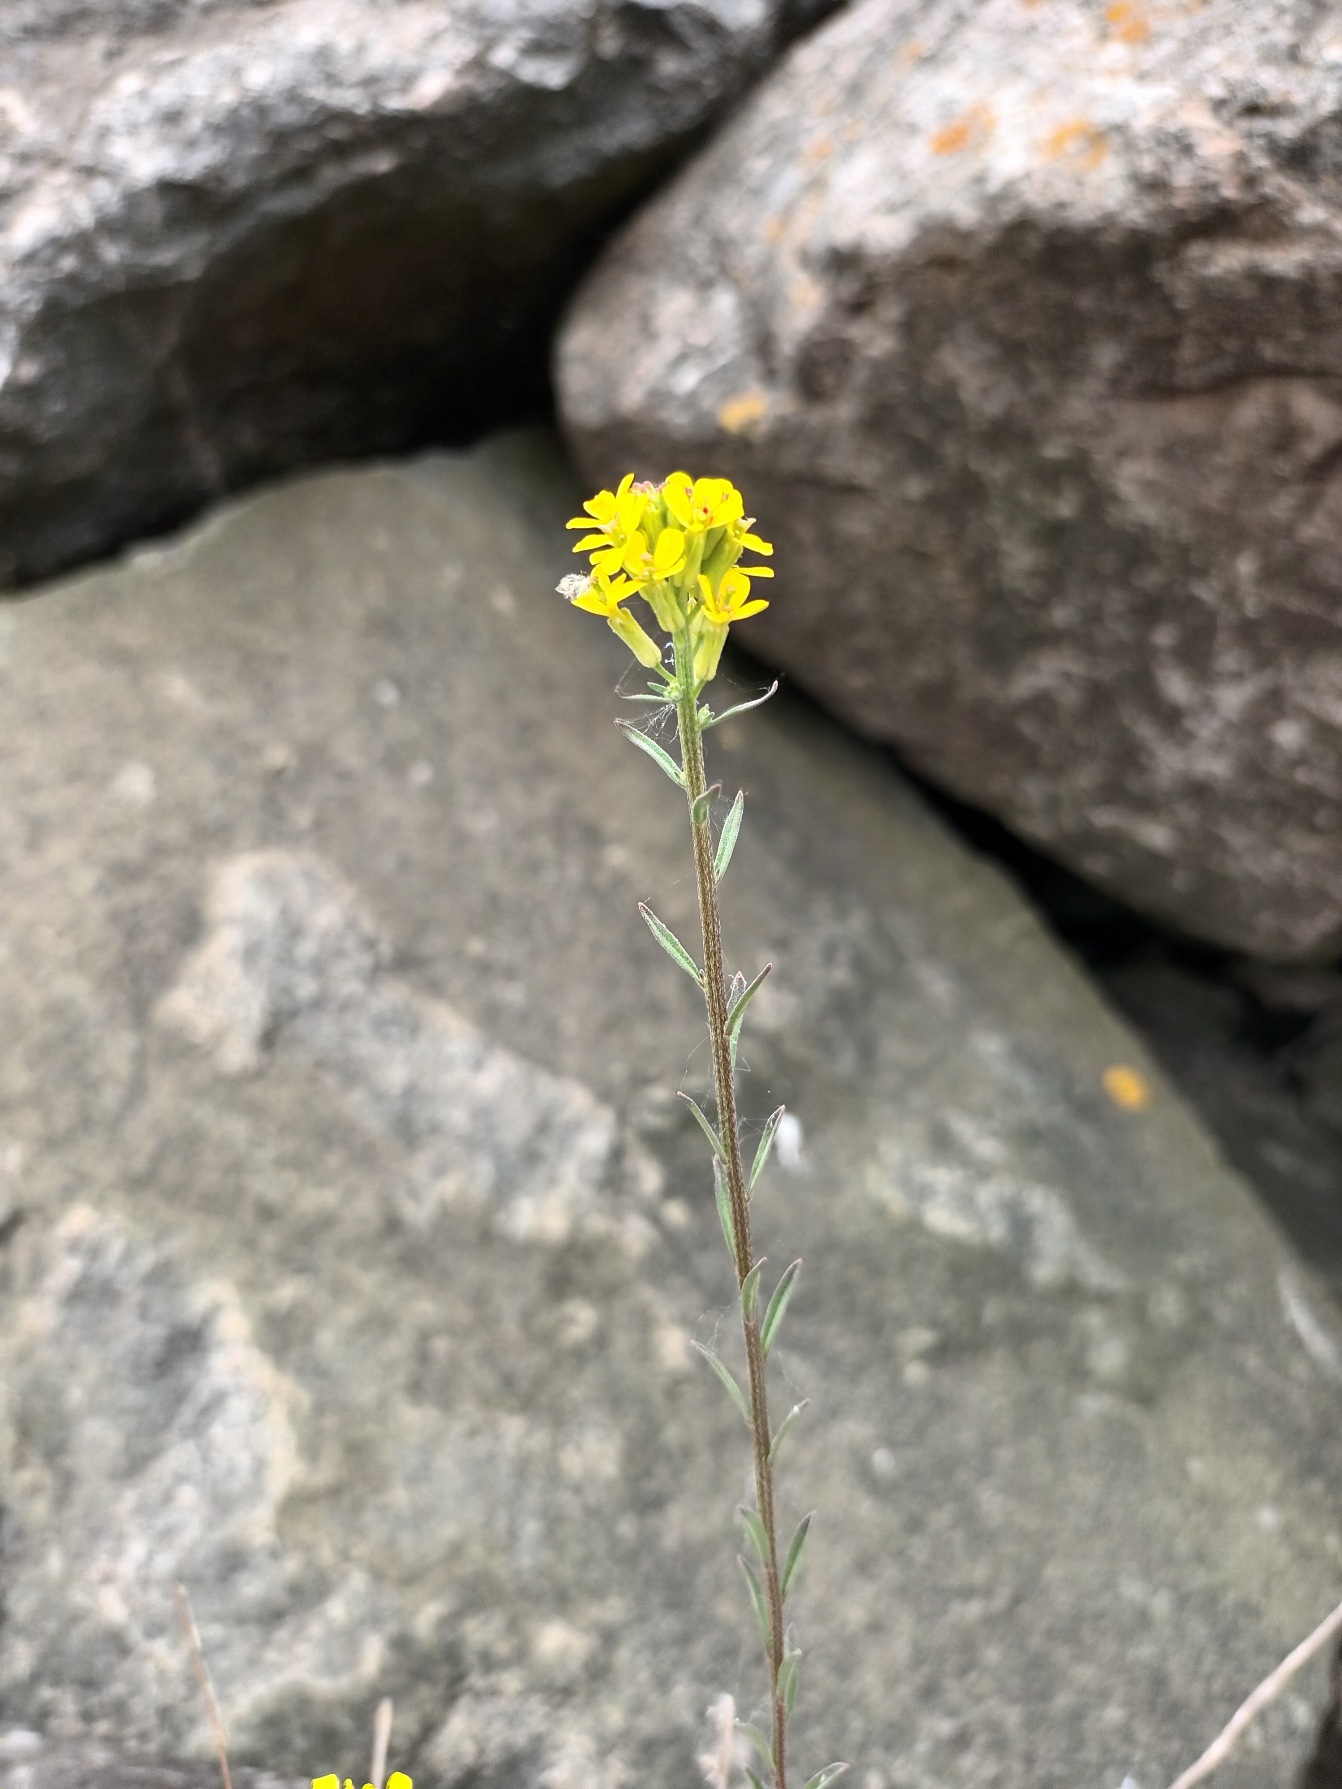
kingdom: Plantae
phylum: Tracheophyta
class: Magnoliopsida
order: Brassicales
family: Brassicaceae
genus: Erysimum
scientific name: Erysimum marschallianum
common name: Hård hjørneklap
